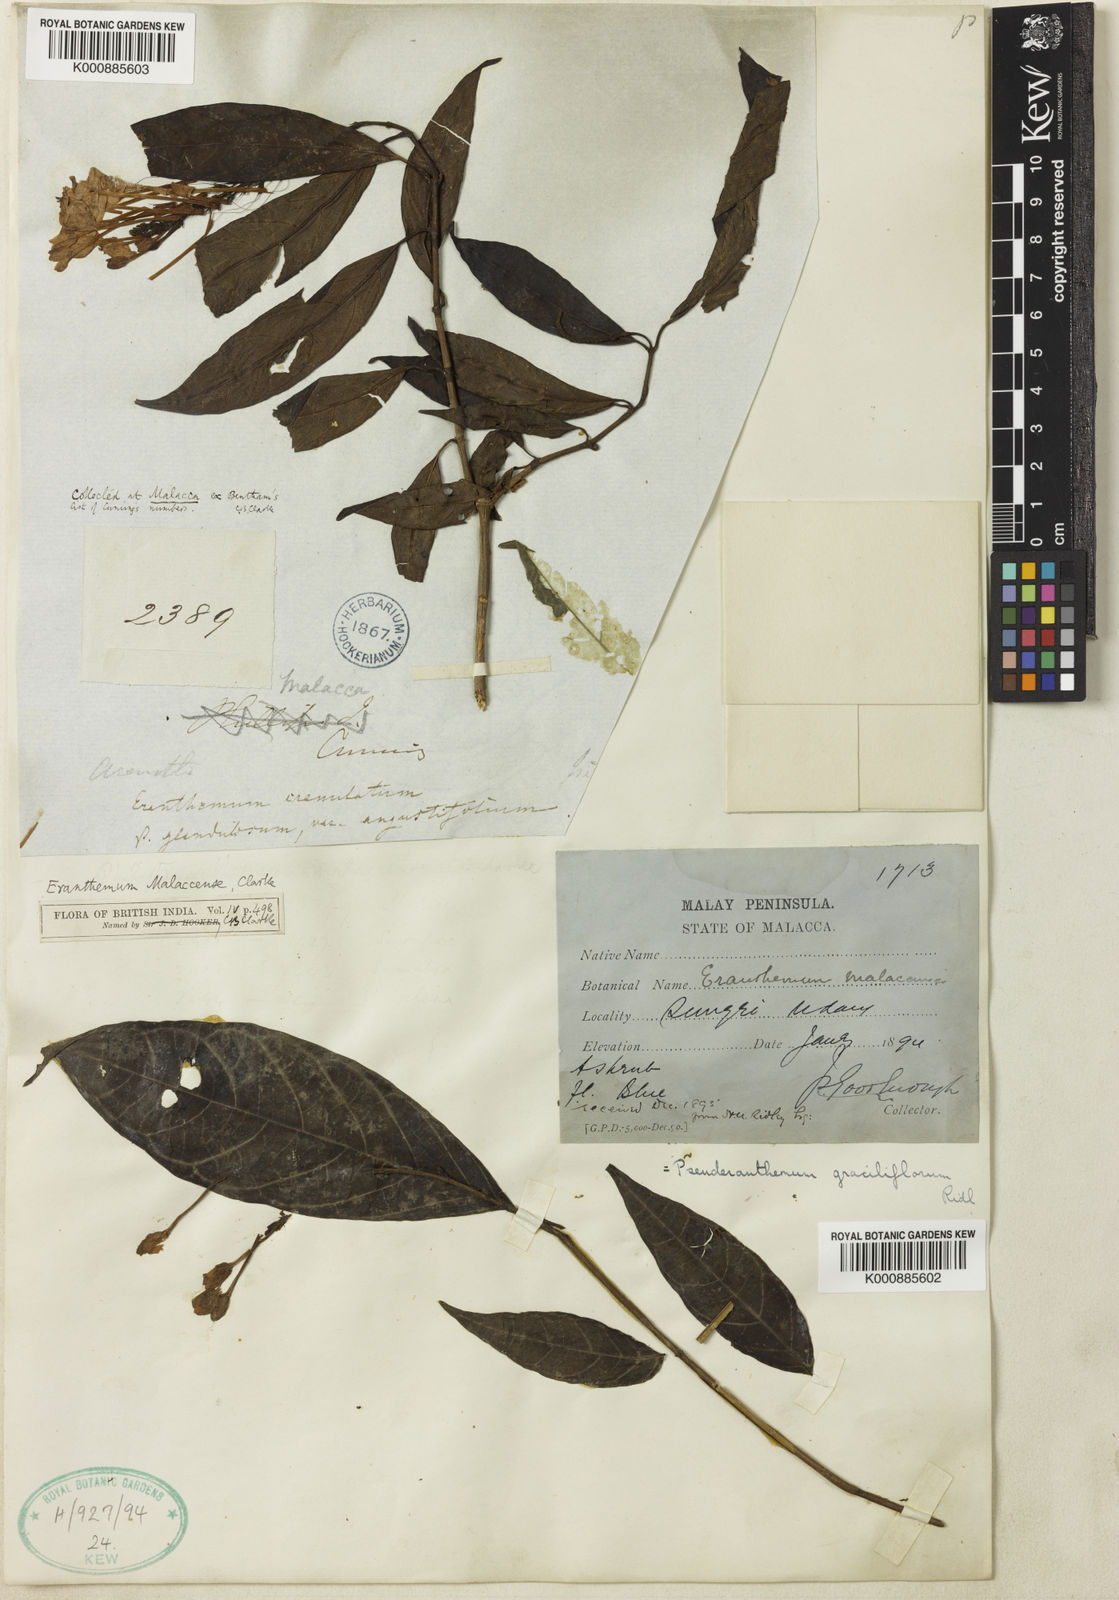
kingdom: Plantae
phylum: Tracheophyta
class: Magnoliopsida
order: Lamiales
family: Acanthaceae
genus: Pseuderanthemum
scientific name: Pseuderanthemum graciliflorum
